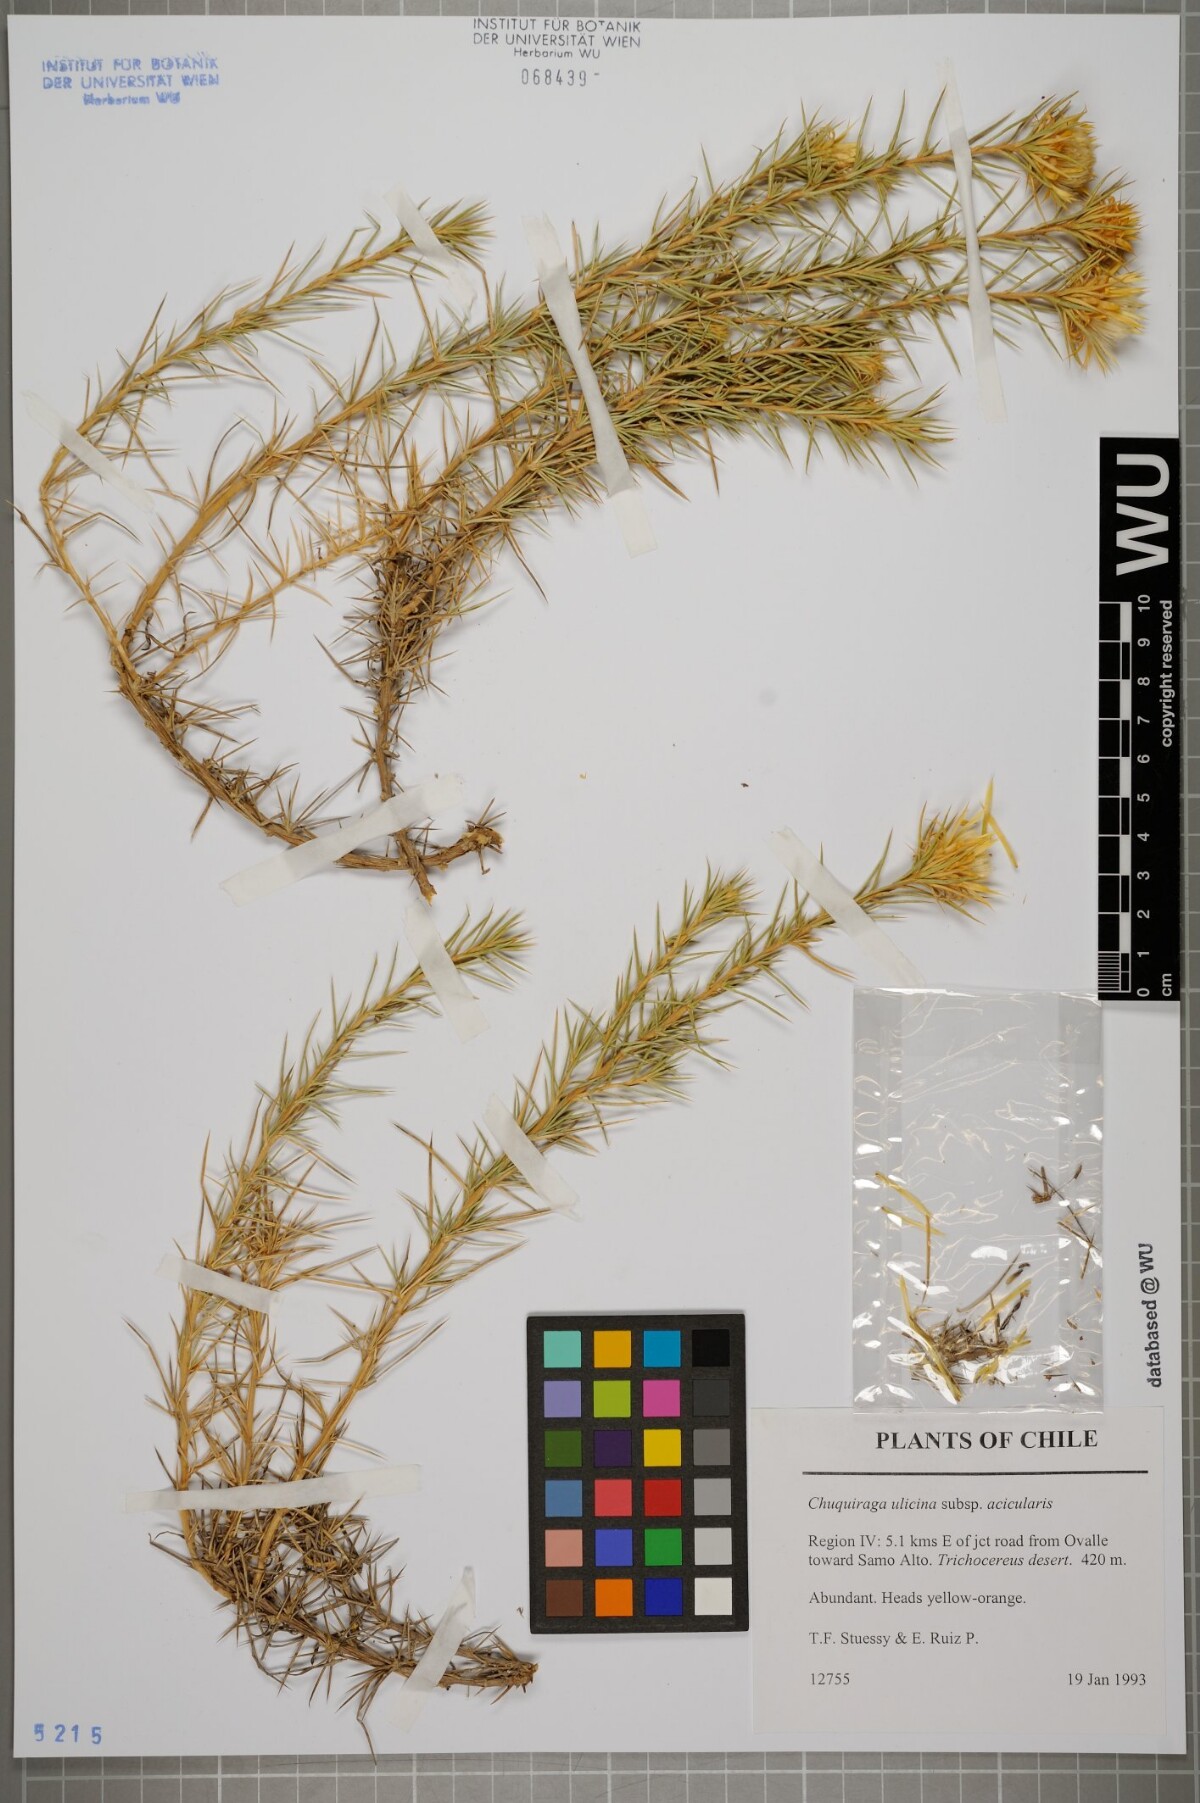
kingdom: Plantae
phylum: Tracheophyta
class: Magnoliopsida
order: Asterales
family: Asteraceae
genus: Chuquiraga
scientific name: Chuquiraga ulicina
